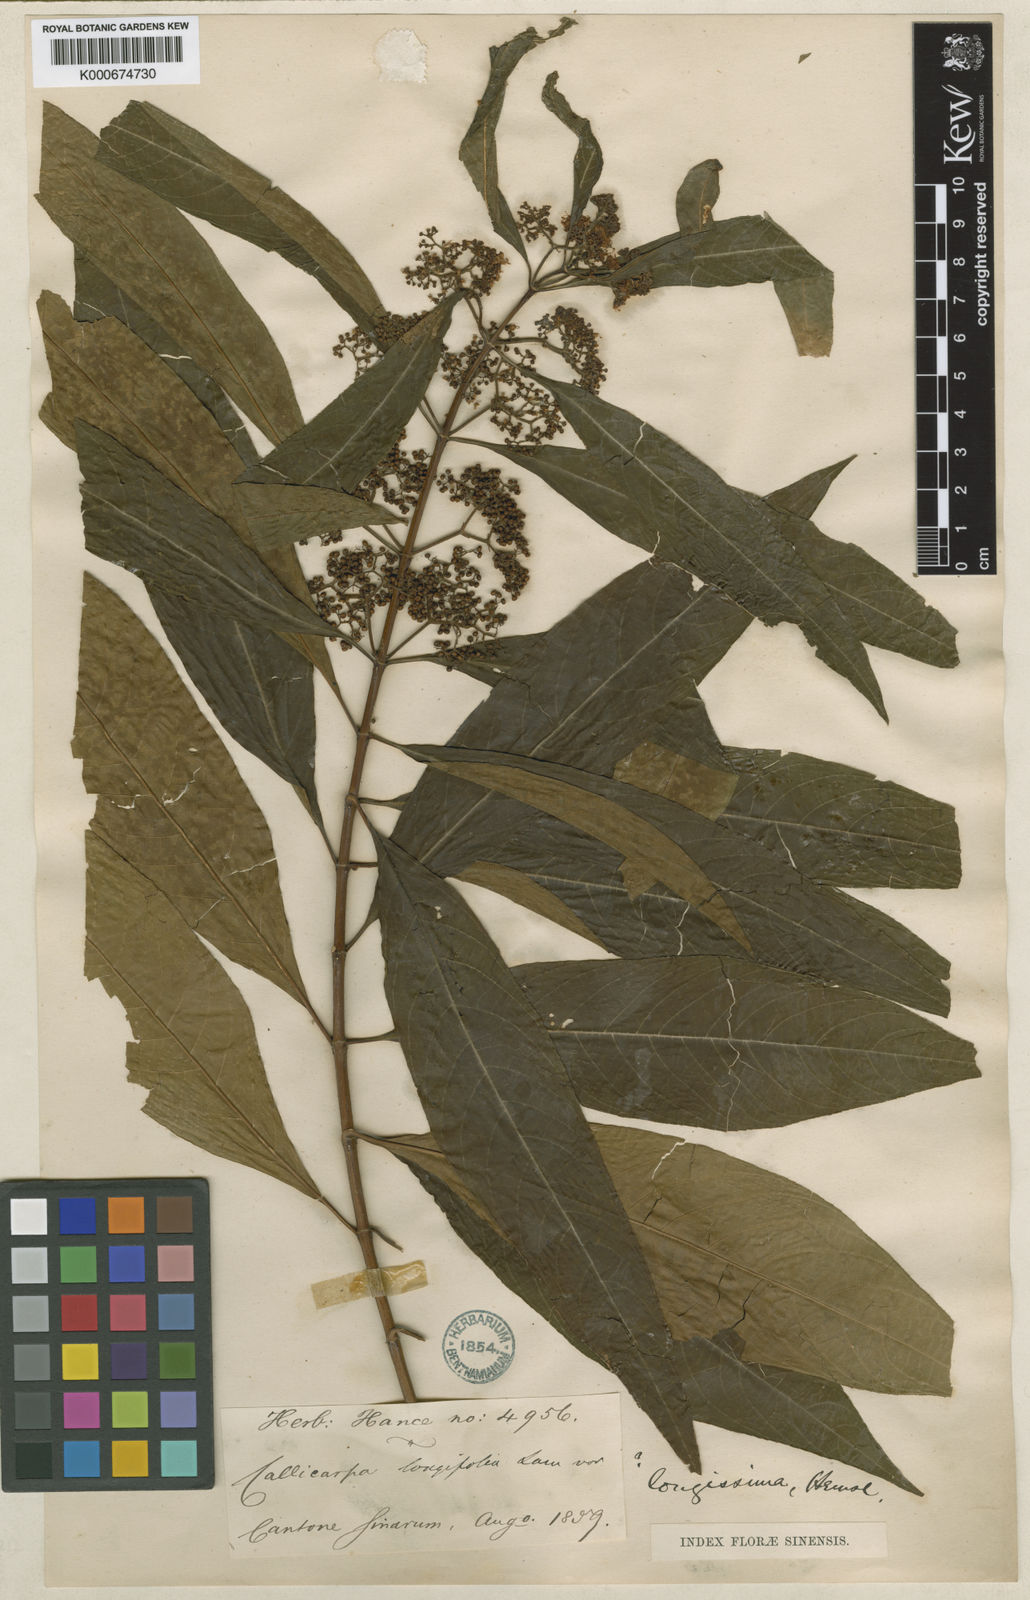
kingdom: Plantae
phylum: Tracheophyta
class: Magnoliopsida
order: Lamiales
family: Lamiaceae
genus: Callicarpa
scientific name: Callicarpa longifolia
